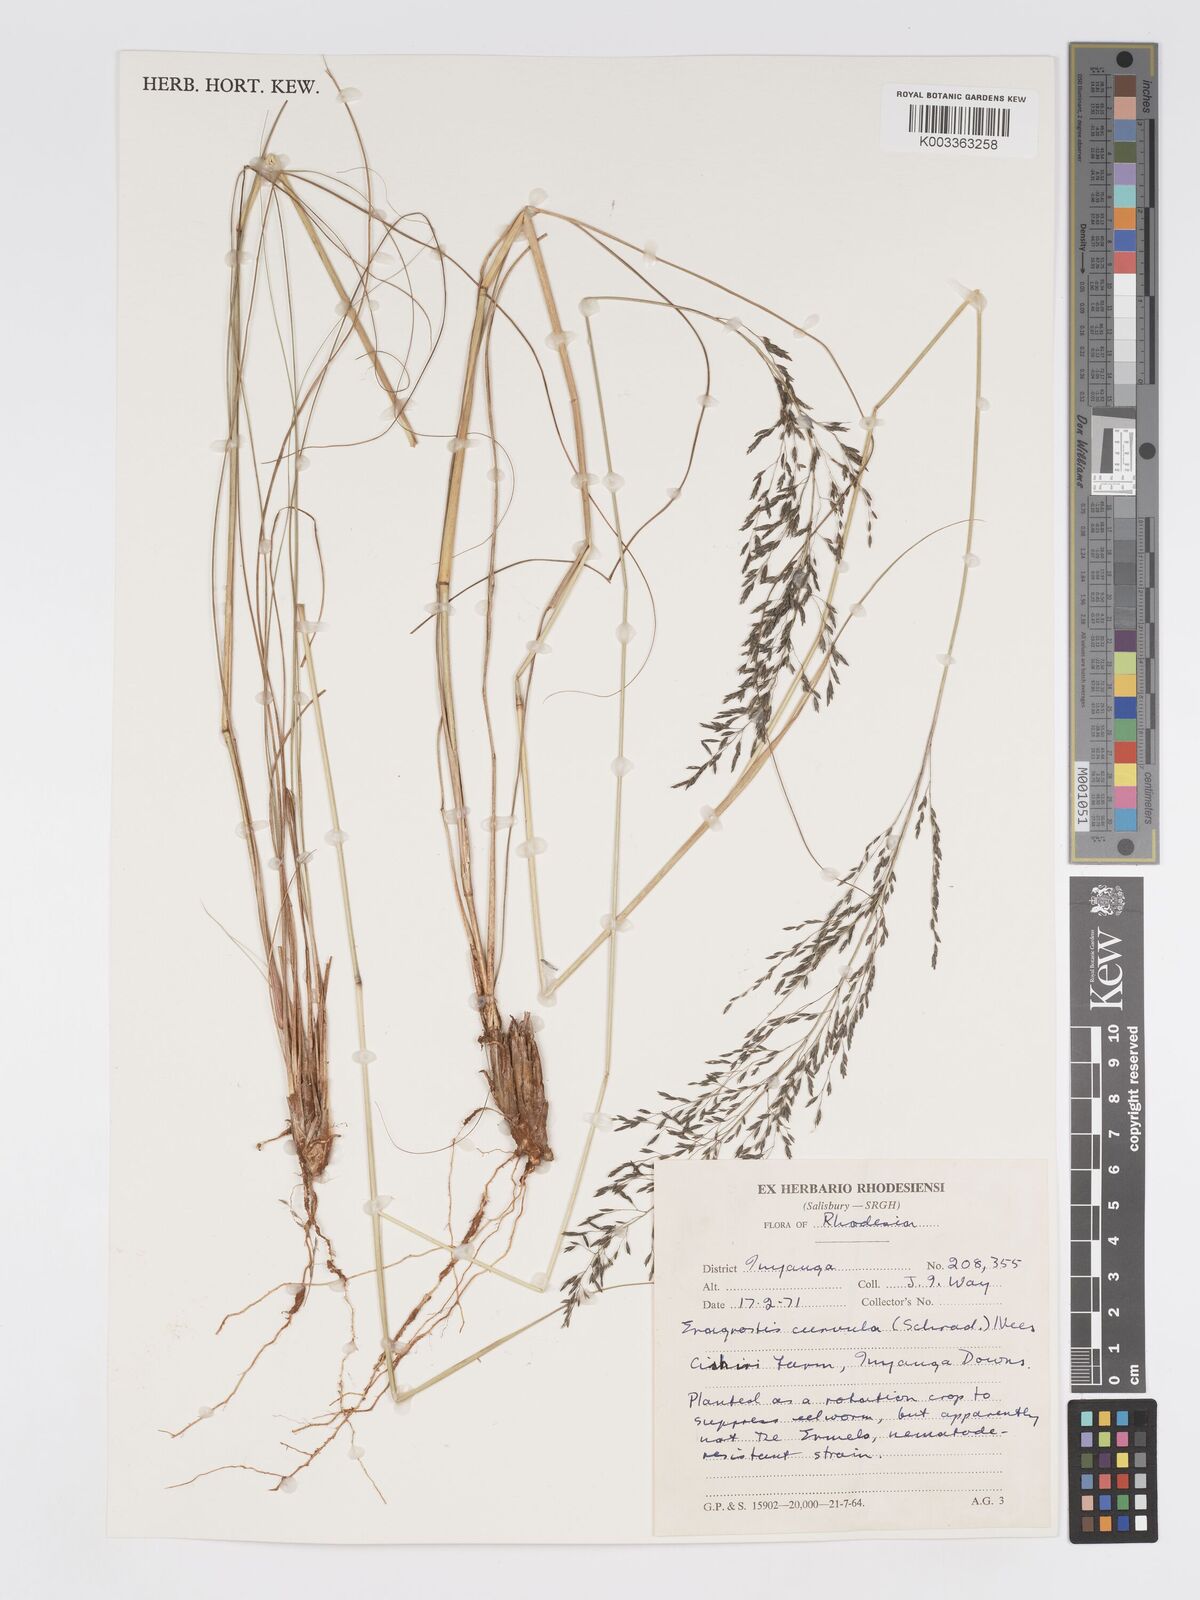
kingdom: Plantae
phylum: Tracheophyta
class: Liliopsida
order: Poales
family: Poaceae
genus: Eragrostis
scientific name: Eragrostis curvula
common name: African love-grass
